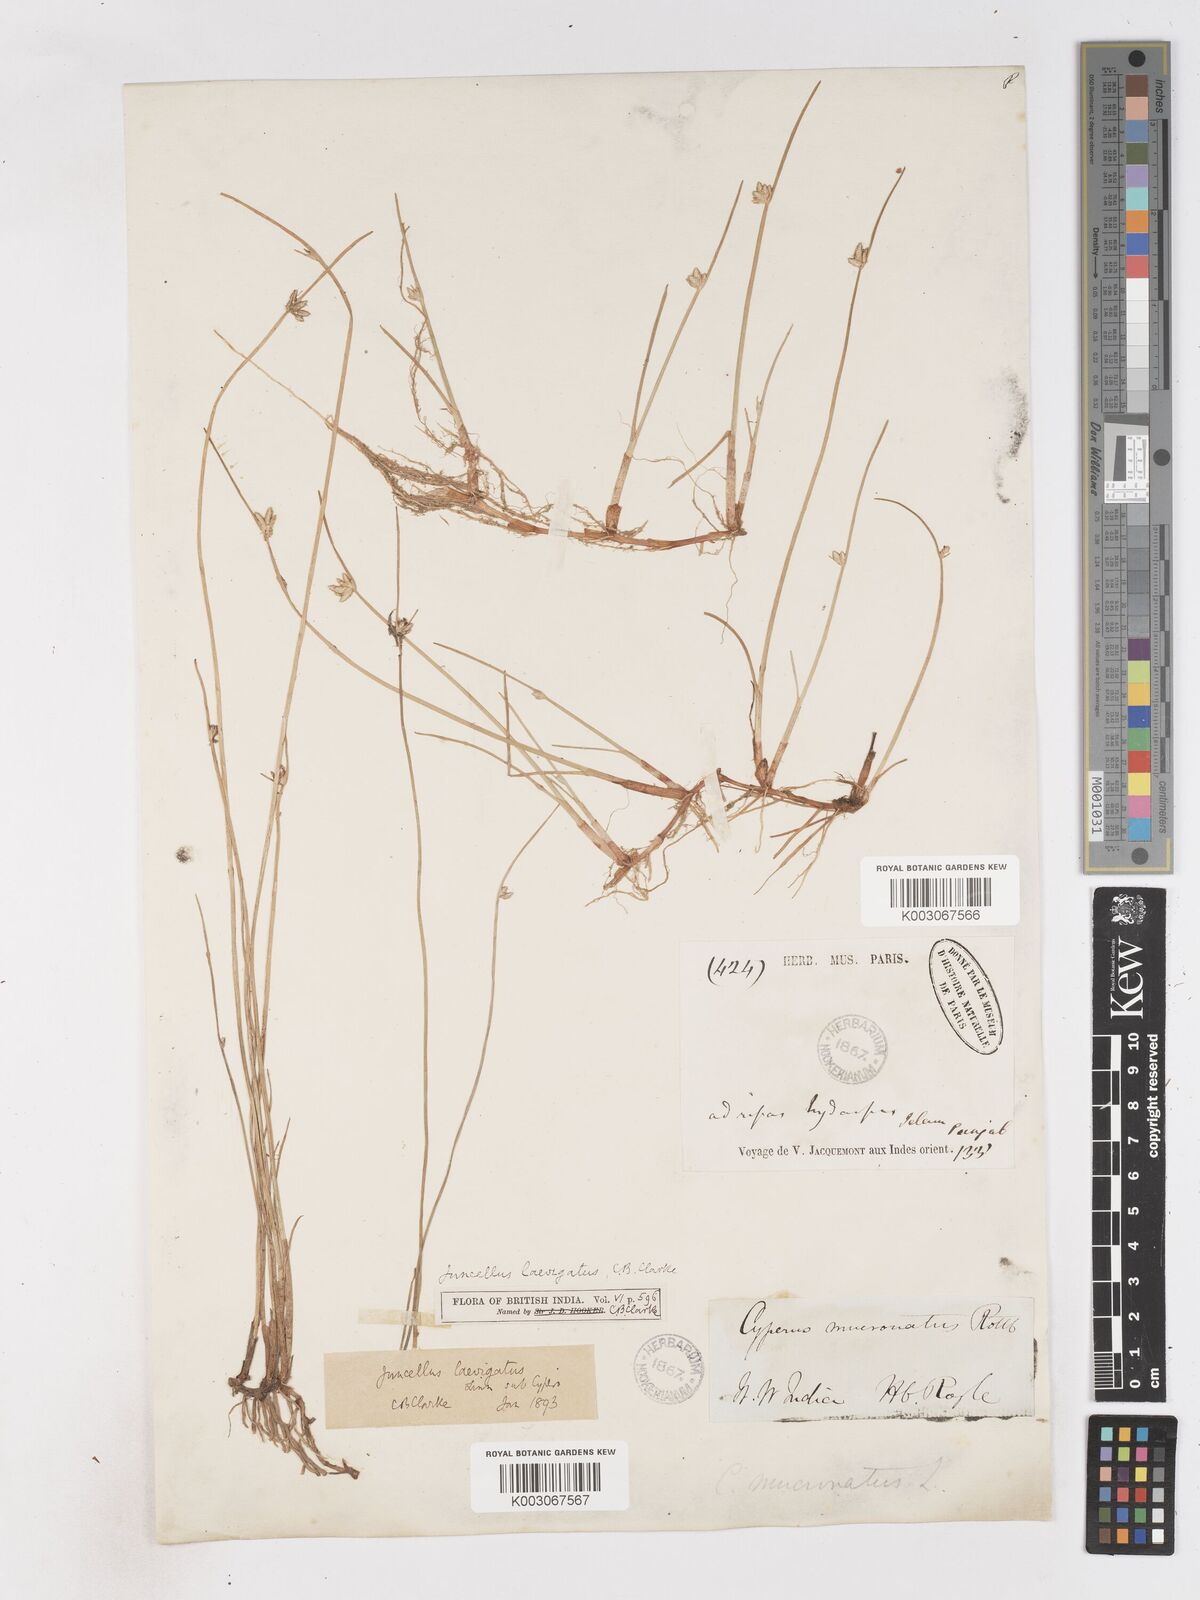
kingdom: Plantae
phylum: Tracheophyta
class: Liliopsida
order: Poales
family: Cyperaceae
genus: Cyperus
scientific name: Cyperus laevigatus
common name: Smooth flat sedge
